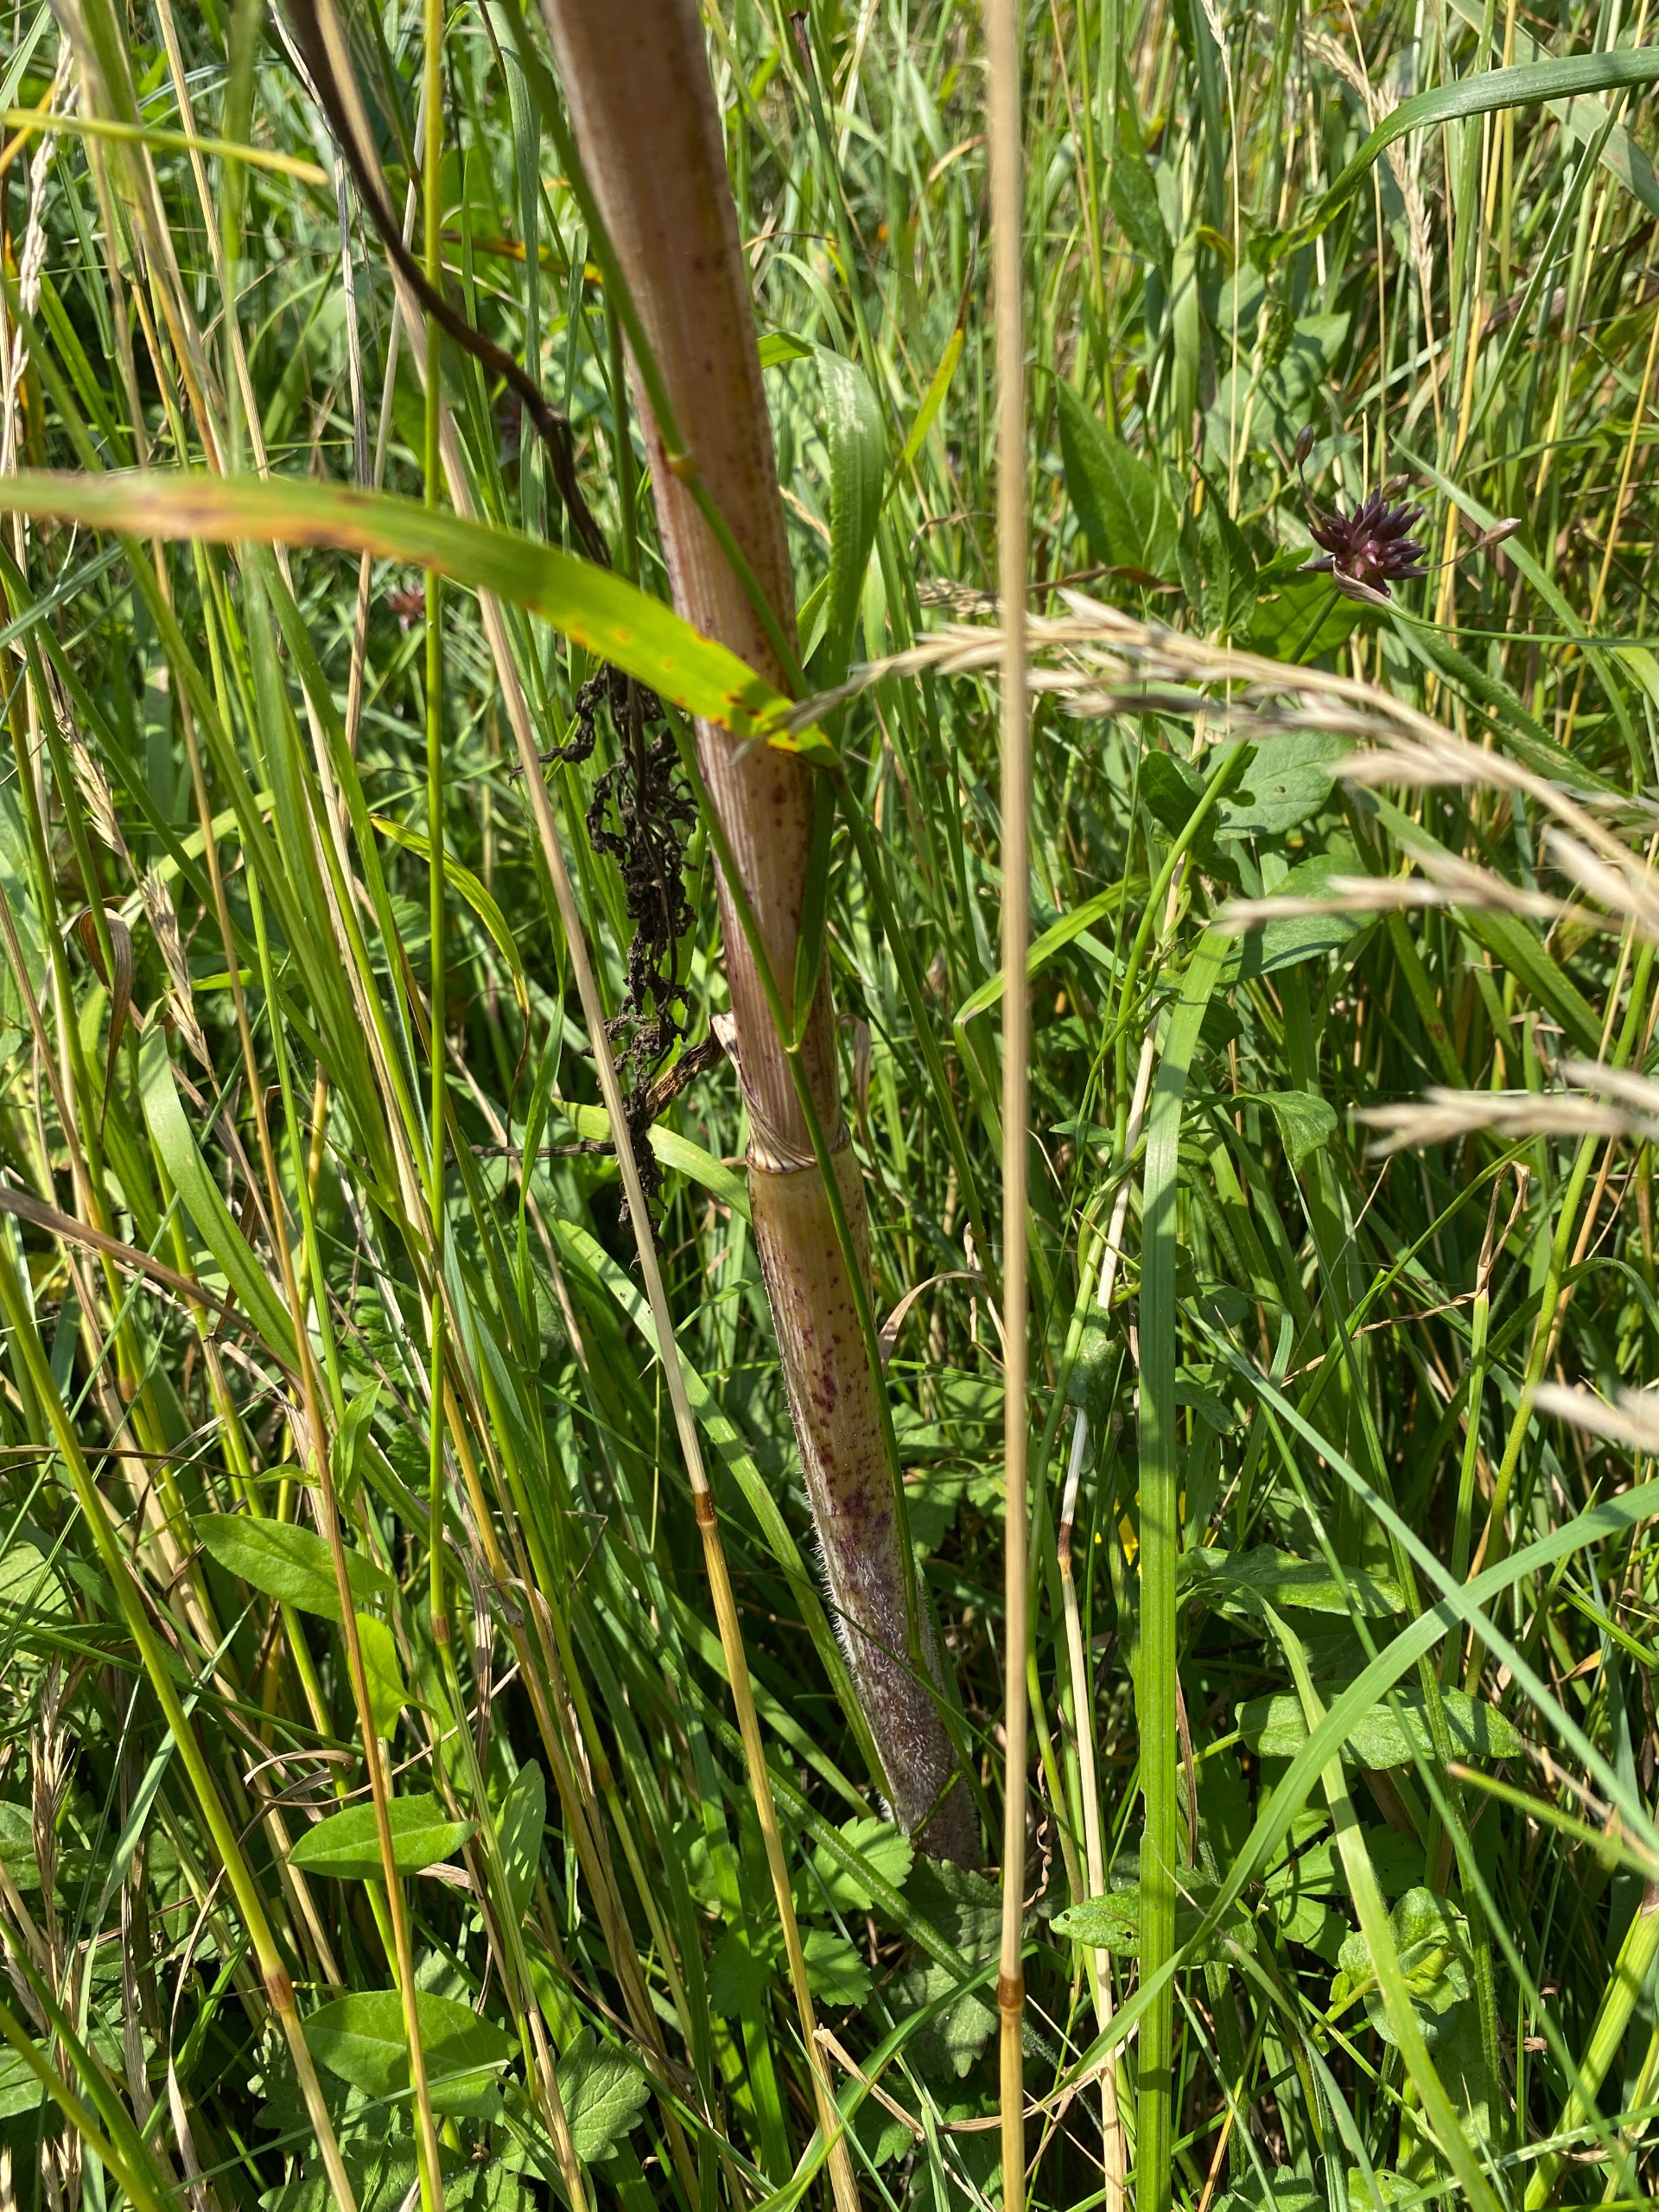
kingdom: Plantae
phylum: Tracheophyta
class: Magnoliopsida
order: Apiales
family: Apiaceae
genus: Chaerophyllum
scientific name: Chaerophyllum bulbosum
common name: Knoldet hulsvøb
